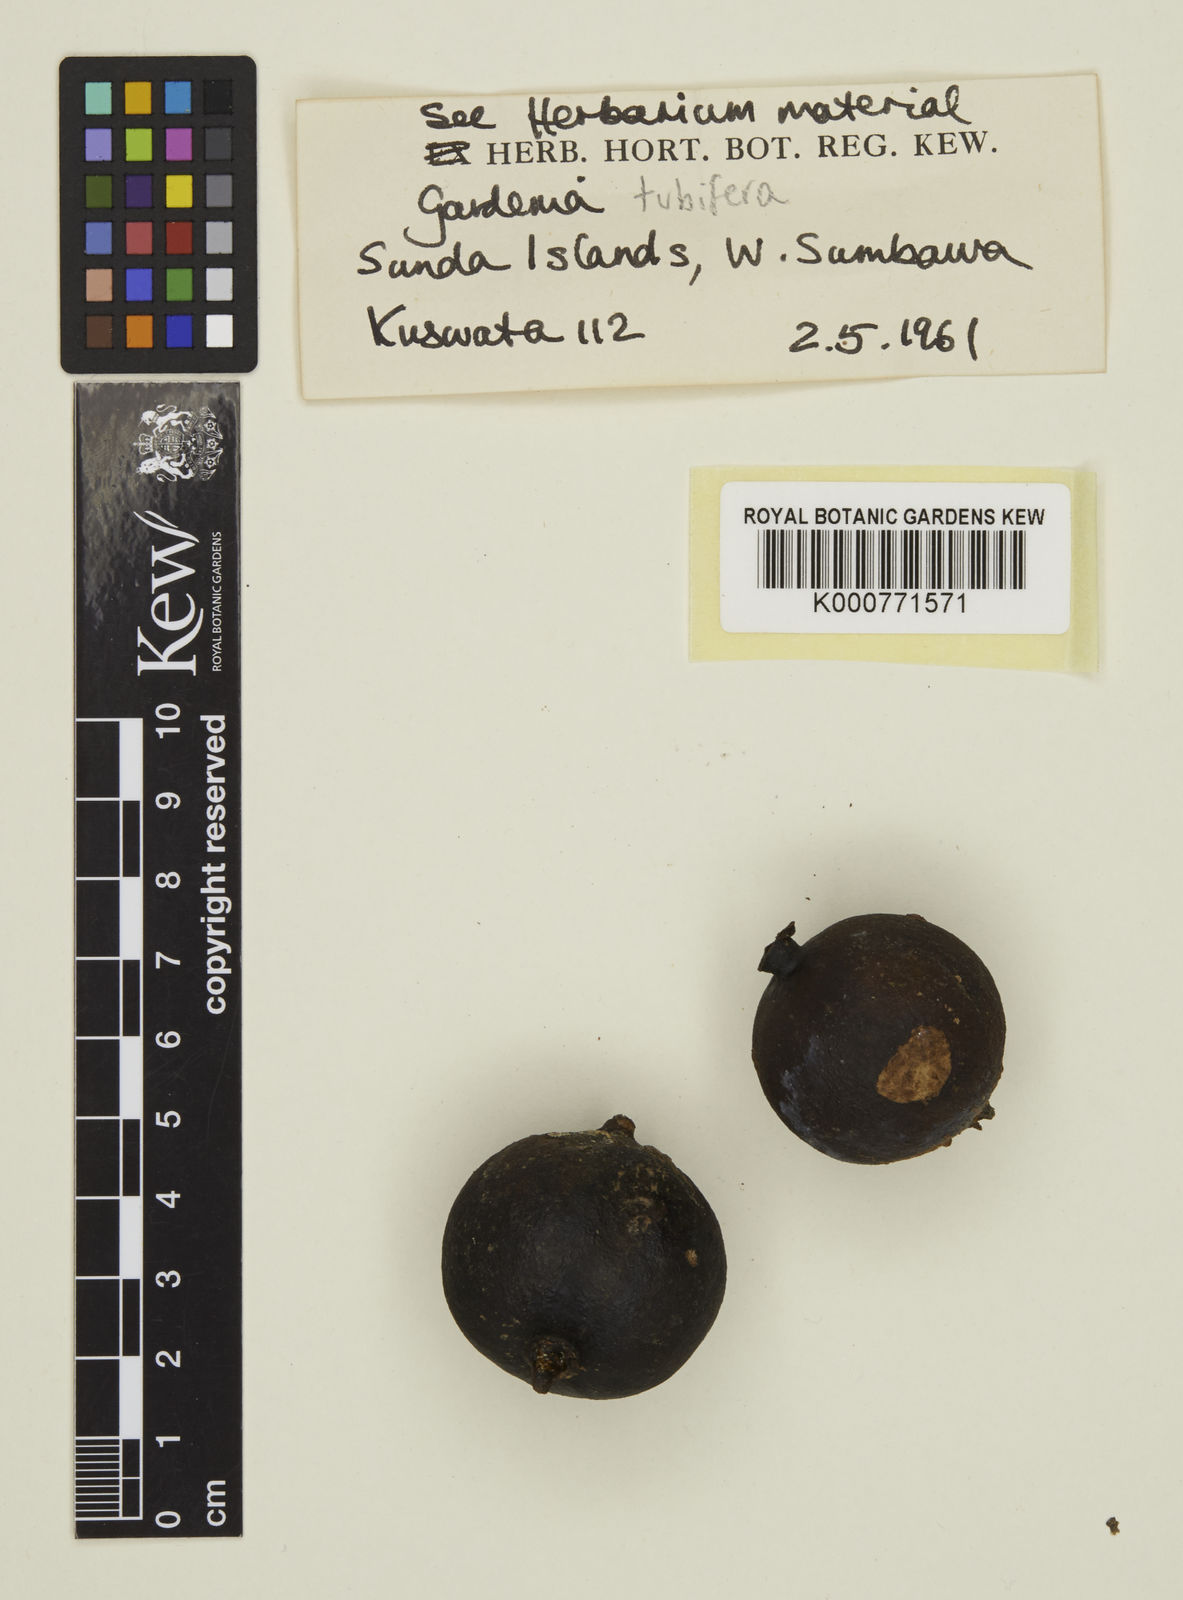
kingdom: Plantae
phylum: Tracheophyta
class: Magnoliopsida
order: Gentianales
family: Rubiaceae
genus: Gardenia
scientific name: Gardenia
